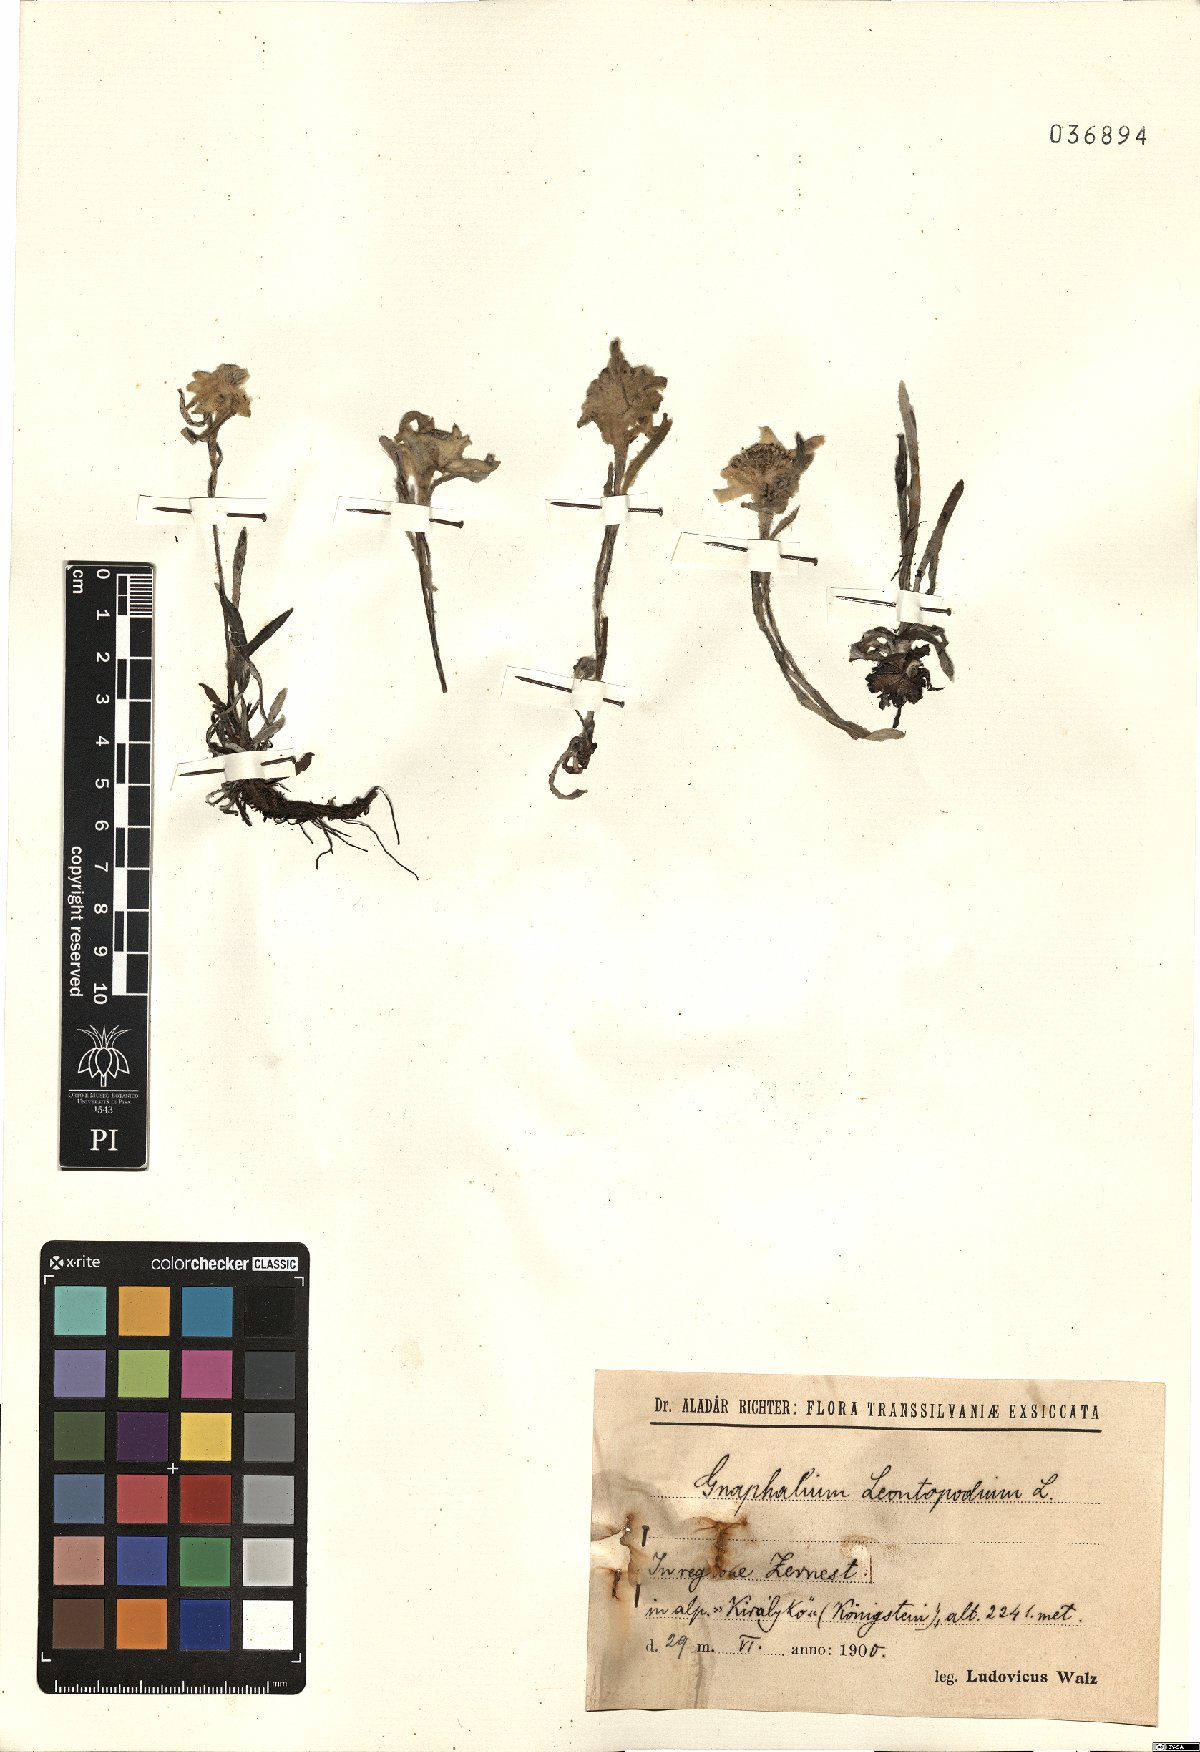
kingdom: Plantae
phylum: Tracheophyta
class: Magnoliopsida
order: Asterales
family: Asteraceae
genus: Leontopodium
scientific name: Leontopodium nivale
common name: Edelweiss
